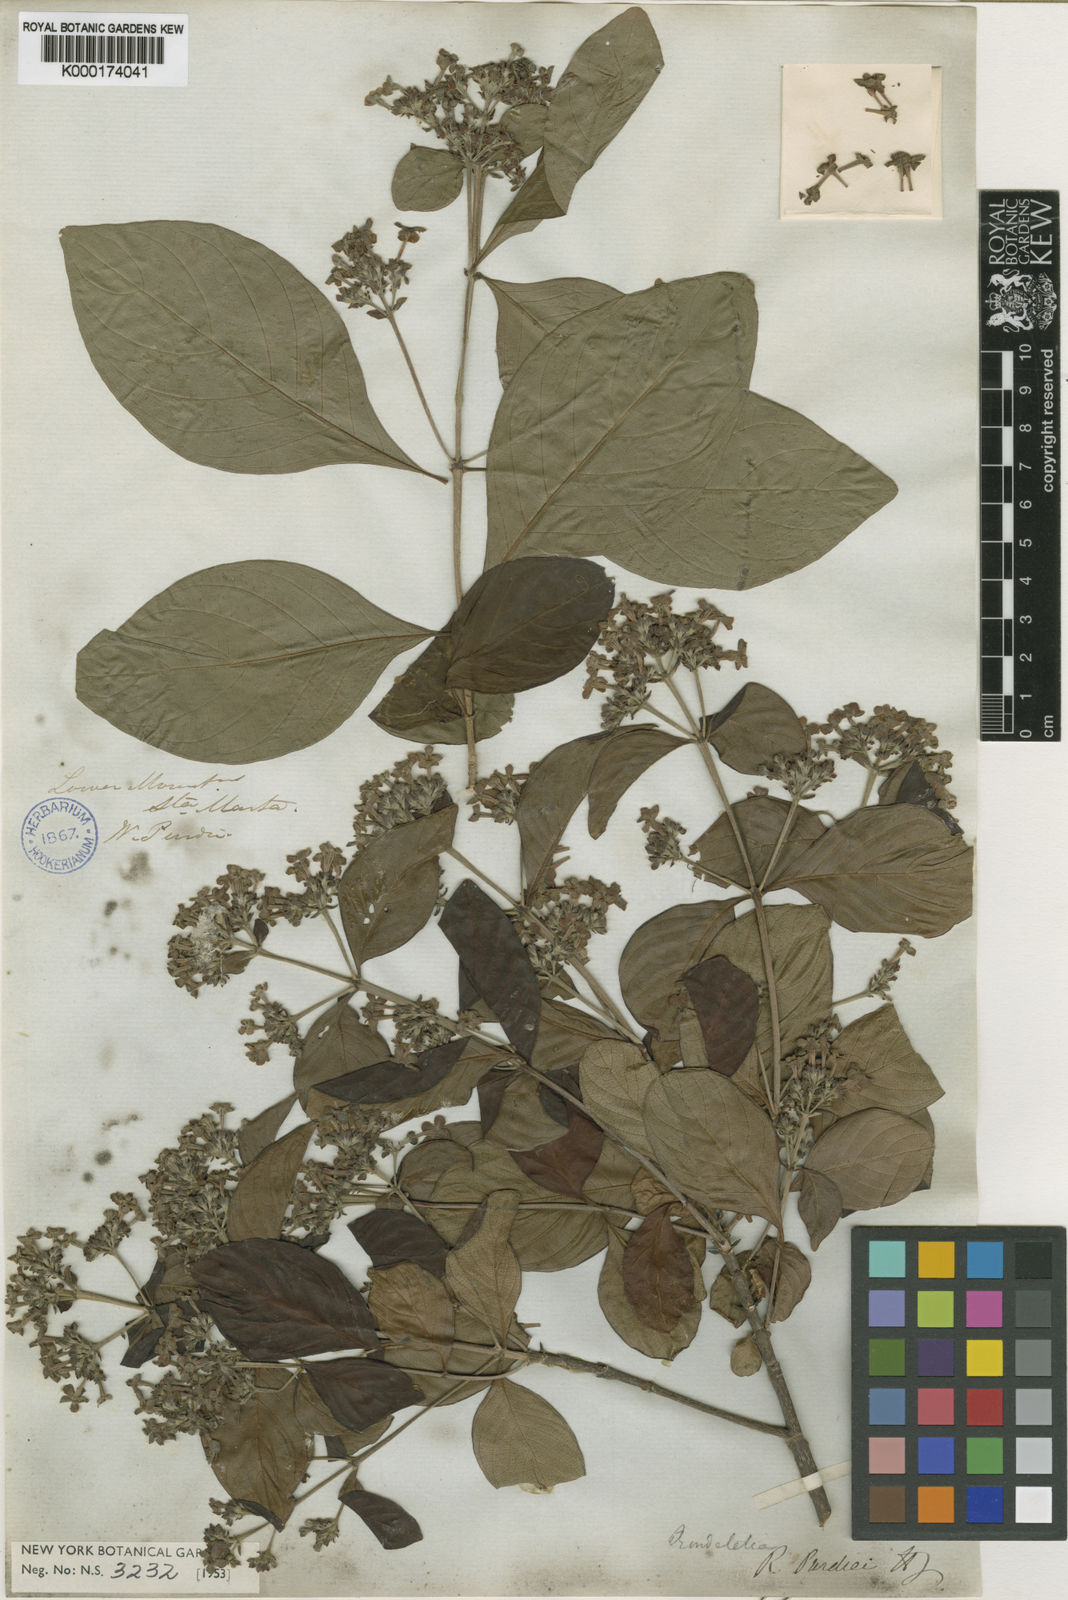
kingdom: Plantae
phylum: Tracheophyta
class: Magnoliopsida
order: Gentianales
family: Rubiaceae
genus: Rondeletia
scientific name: Rondeletia purdiei
